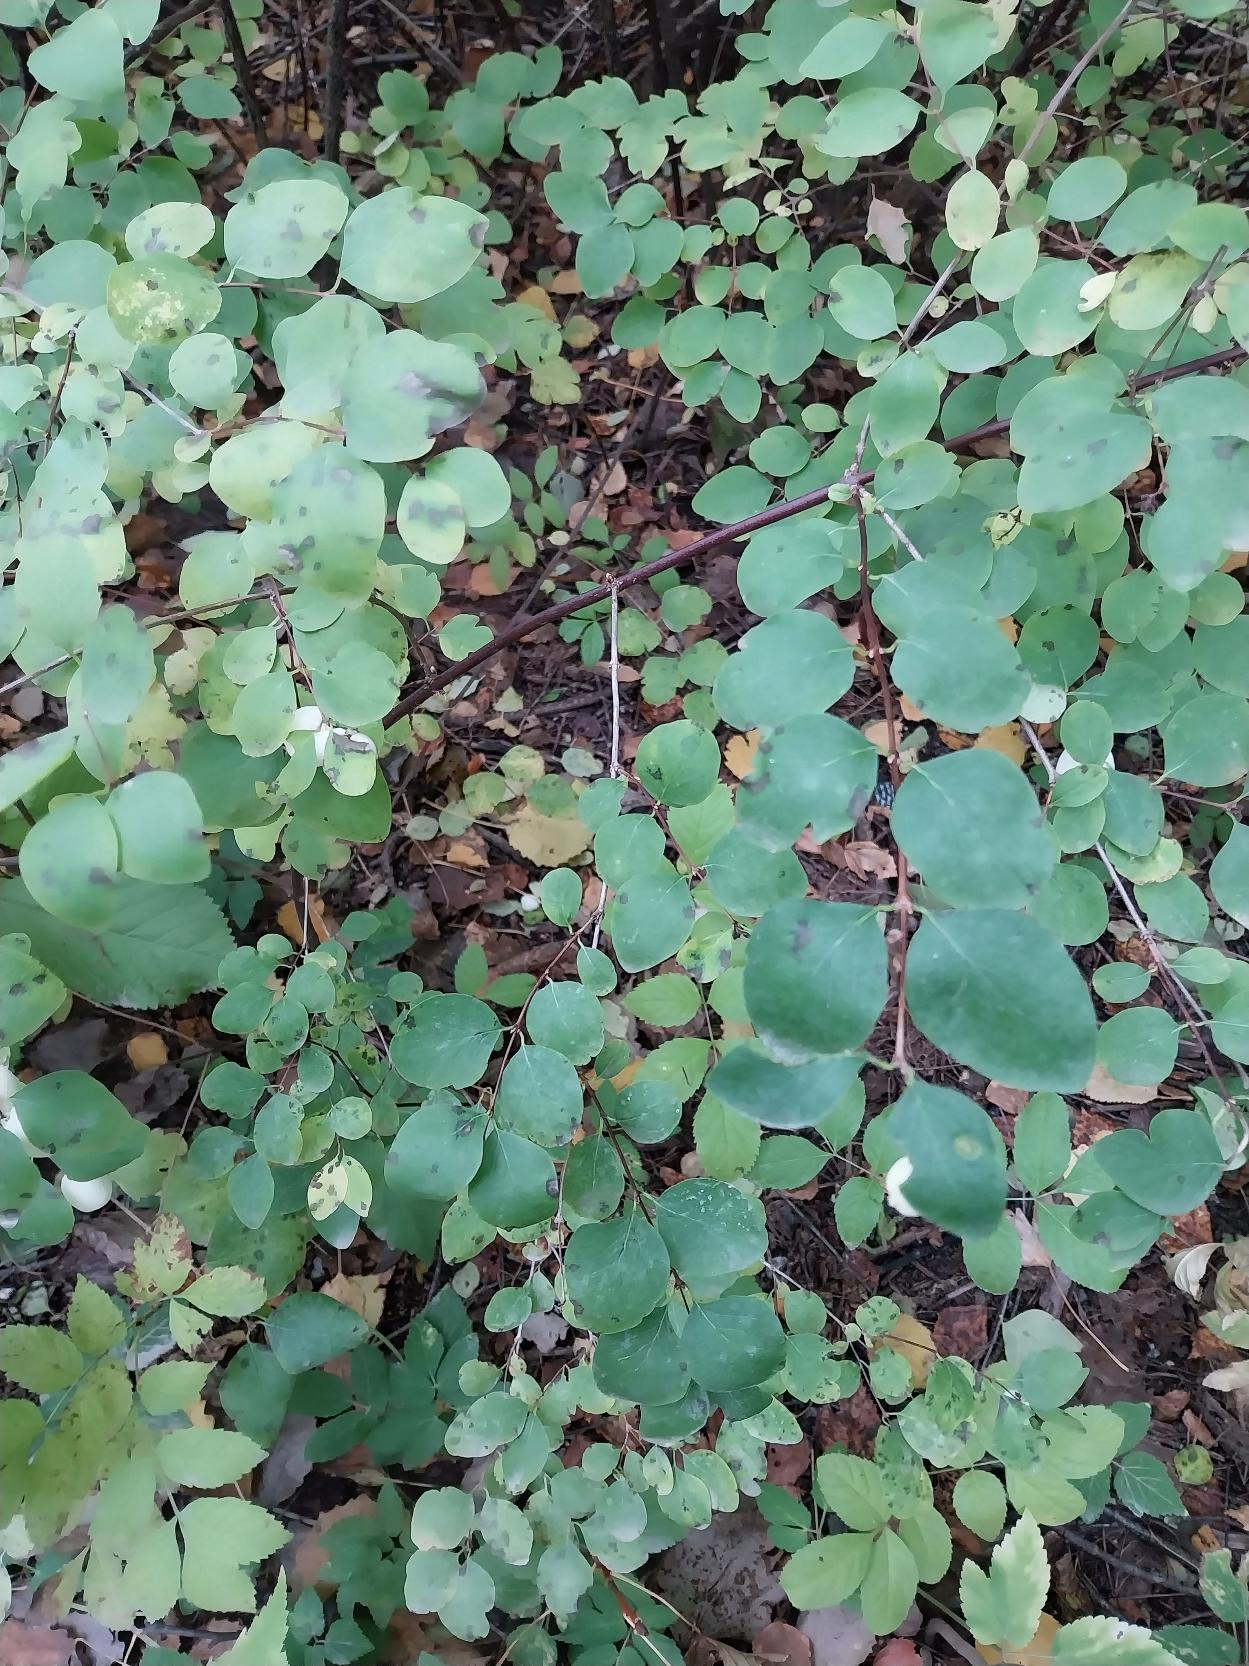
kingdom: Plantae
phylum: Tracheophyta
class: Magnoliopsida
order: Dipsacales
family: Caprifoliaceae
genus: Symphoricarpos
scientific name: Symphoricarpos albus
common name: Almindelig snebær
